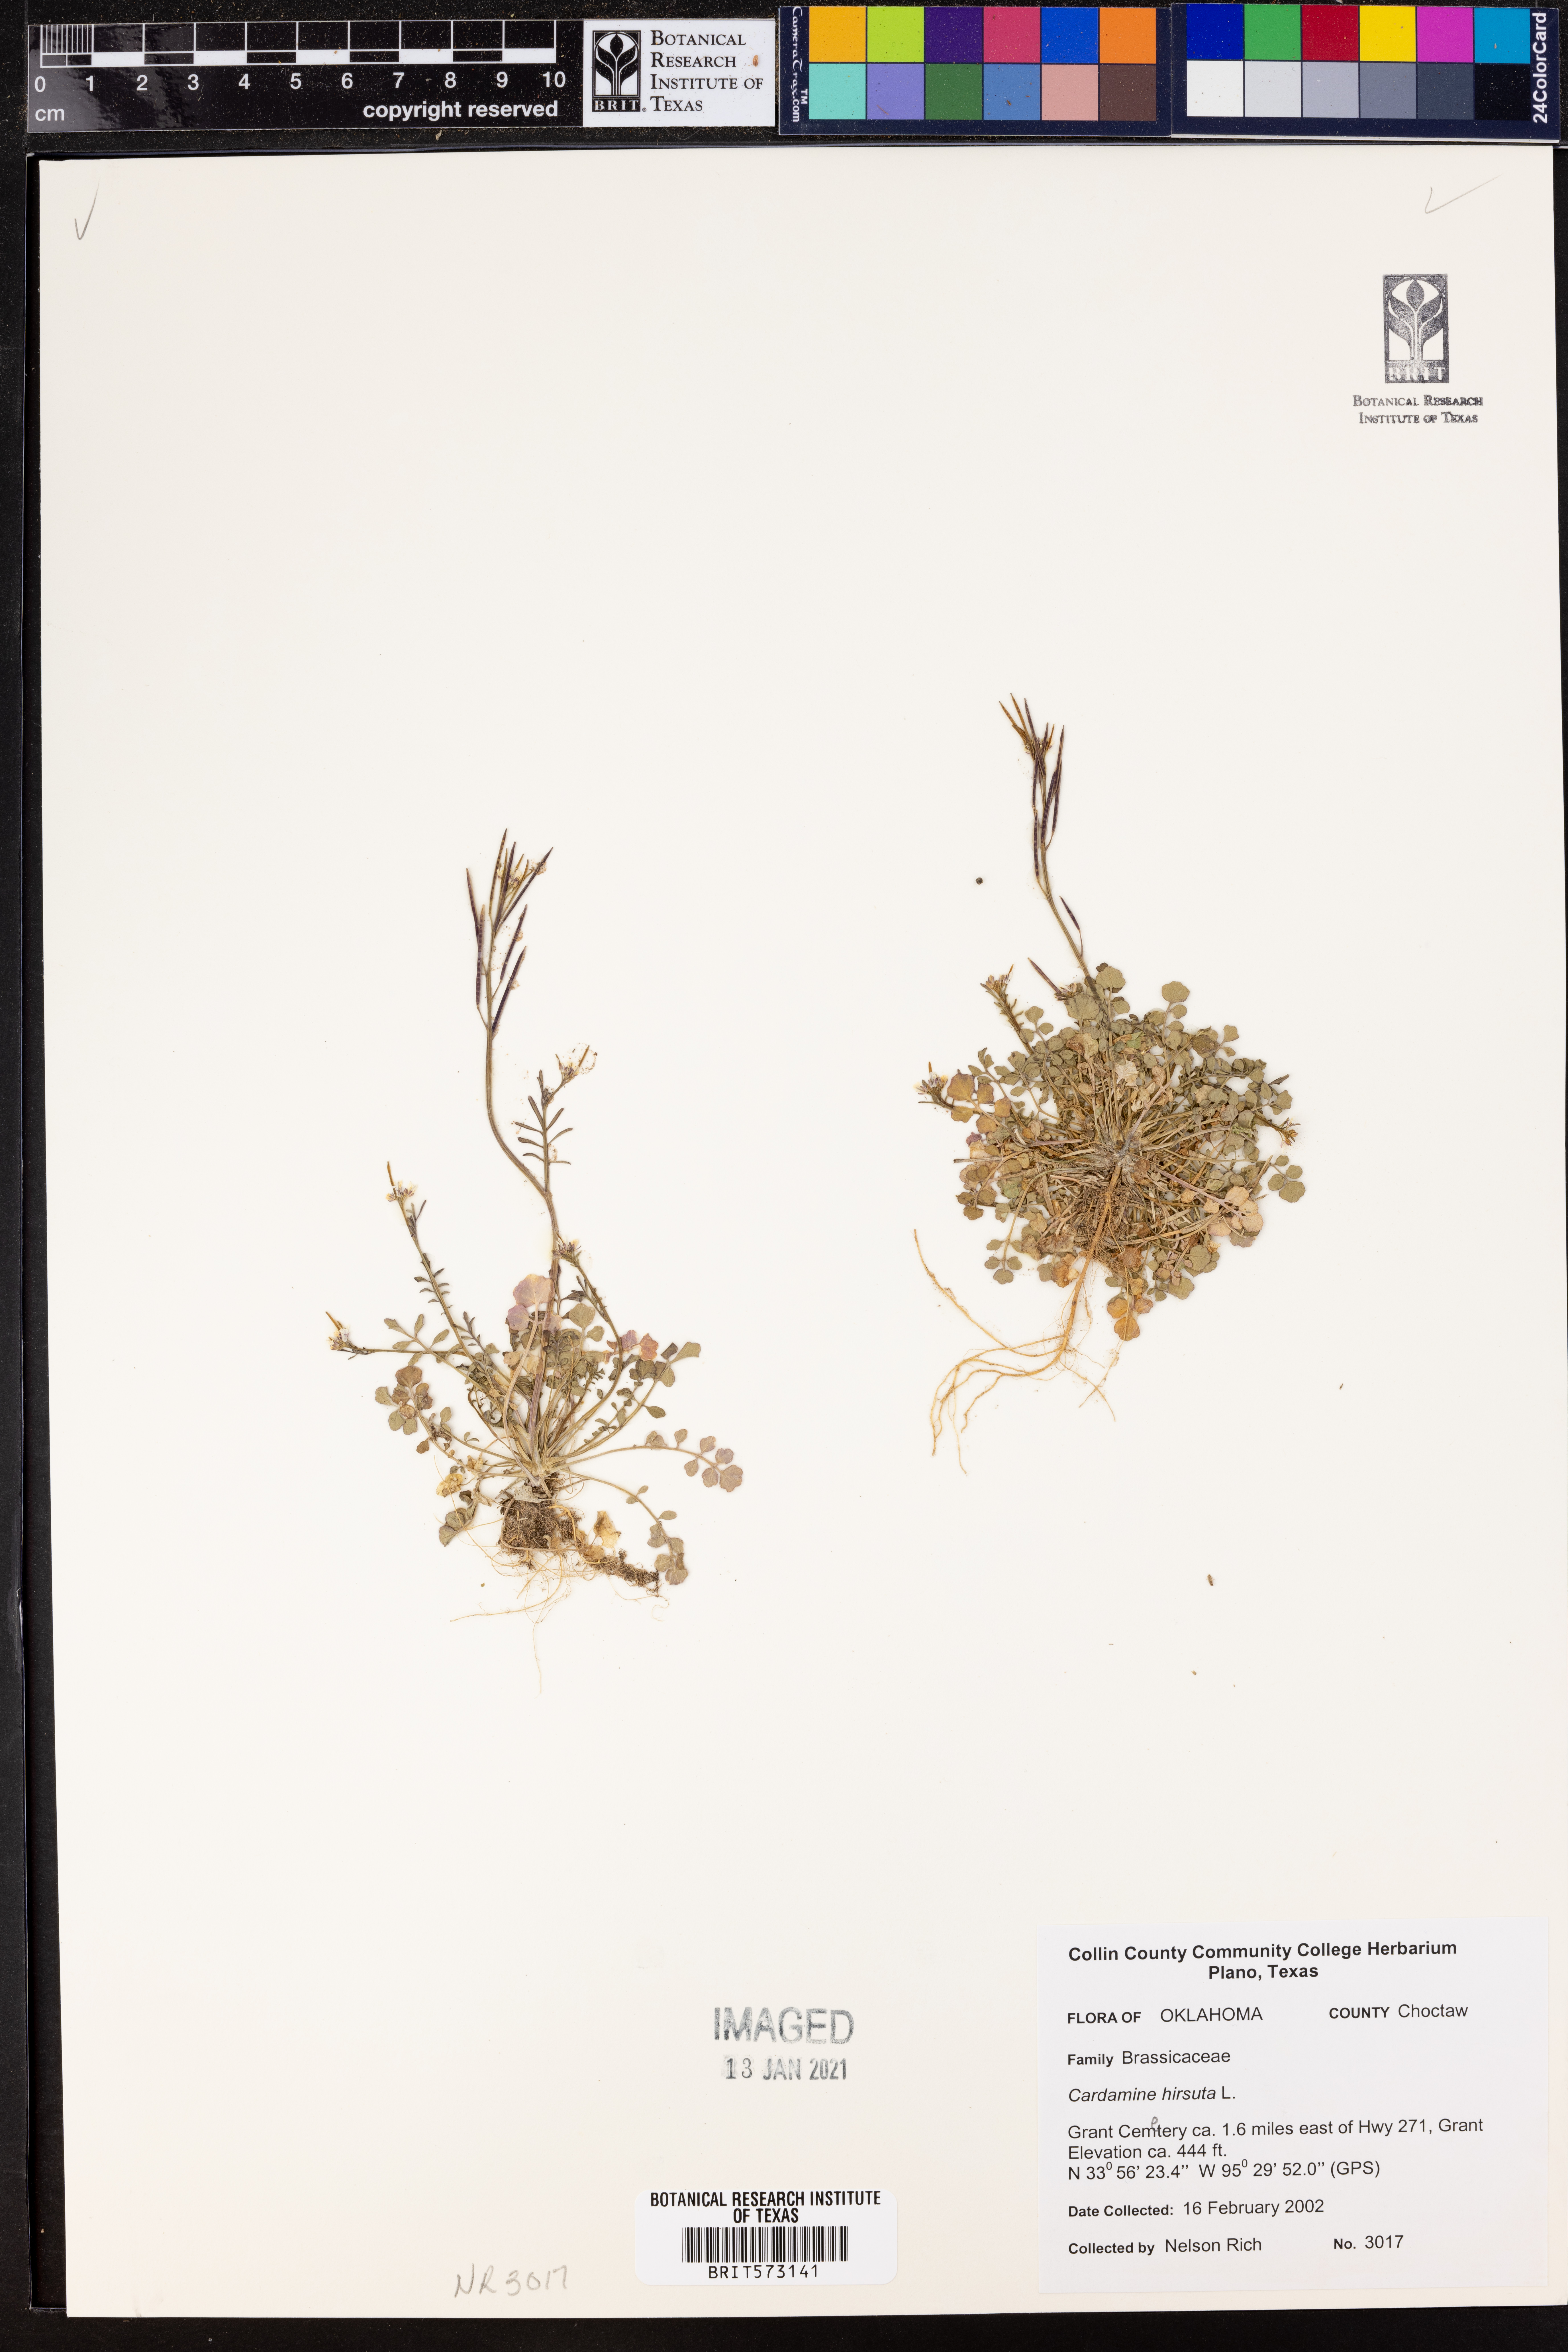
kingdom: Plantae
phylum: Tracheophyta
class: Magnoliopsida
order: Brassicales
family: Brassicaceae
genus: Cardamine
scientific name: Cardamine hirsuta
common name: Hairy bittercress
